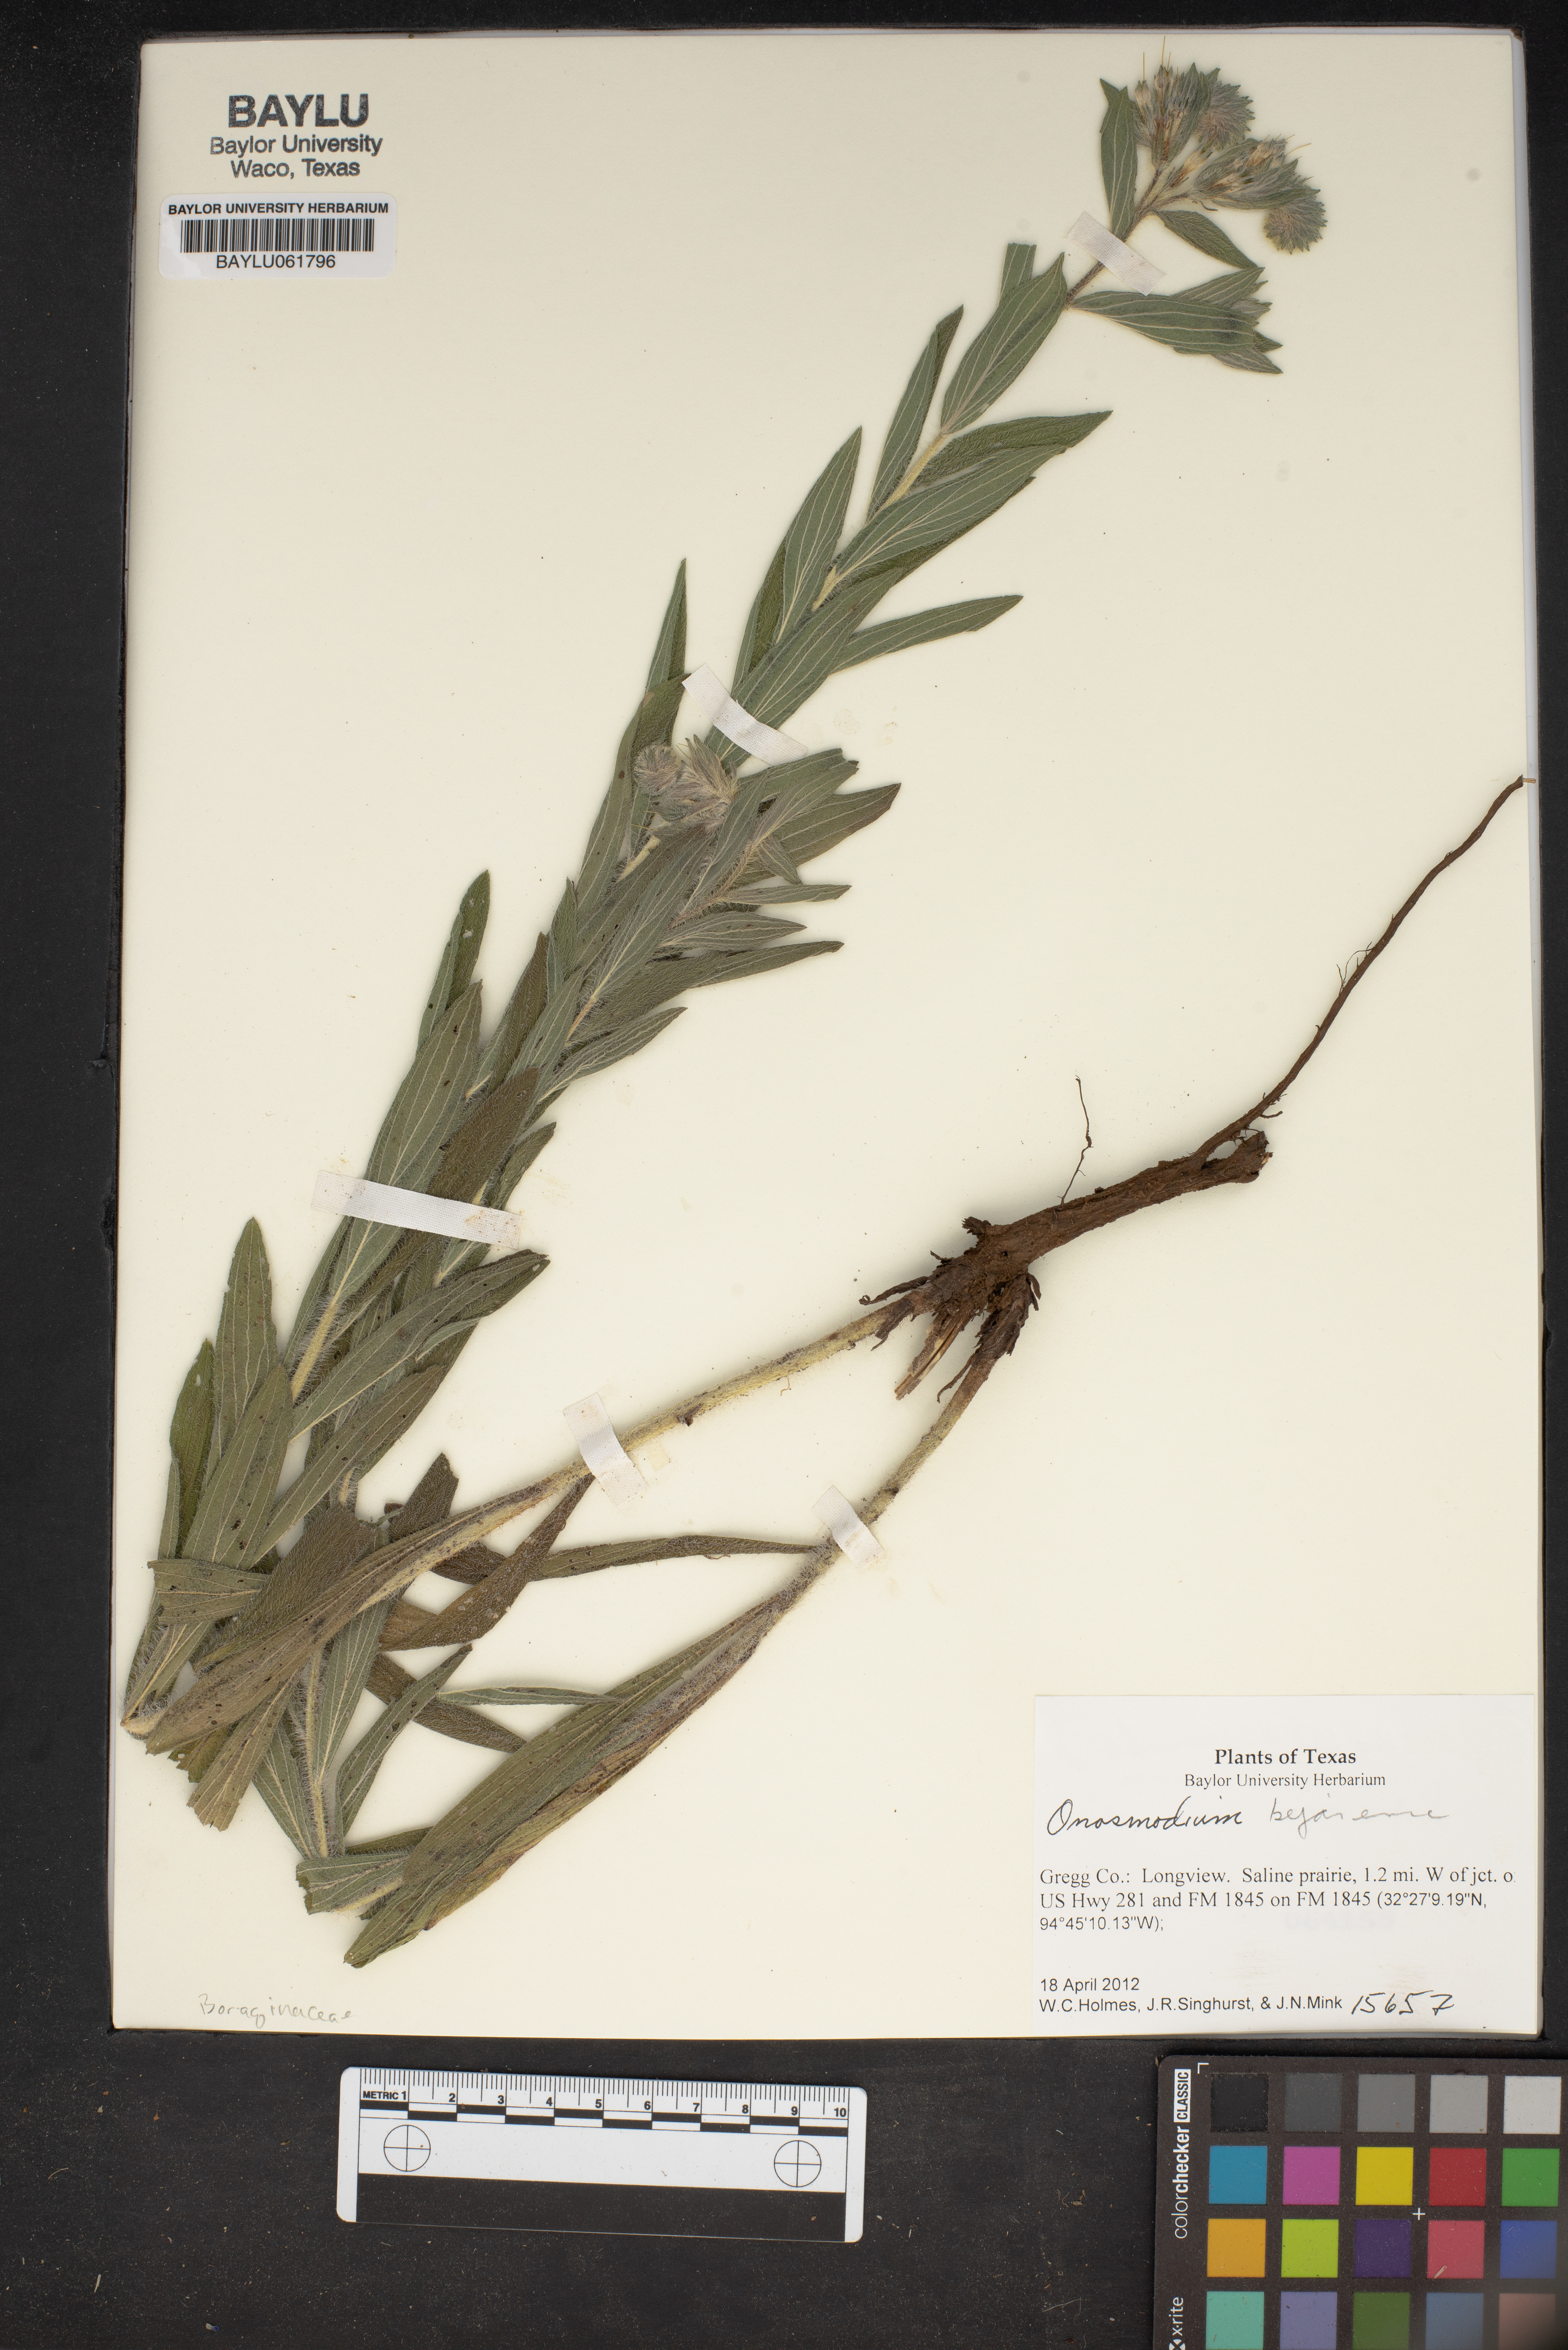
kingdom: Plantae
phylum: Tracheophyta
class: Magnoliopsida
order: Boraginales
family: Boraginaceae
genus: Lithospermum
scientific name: Lithospermum molle
